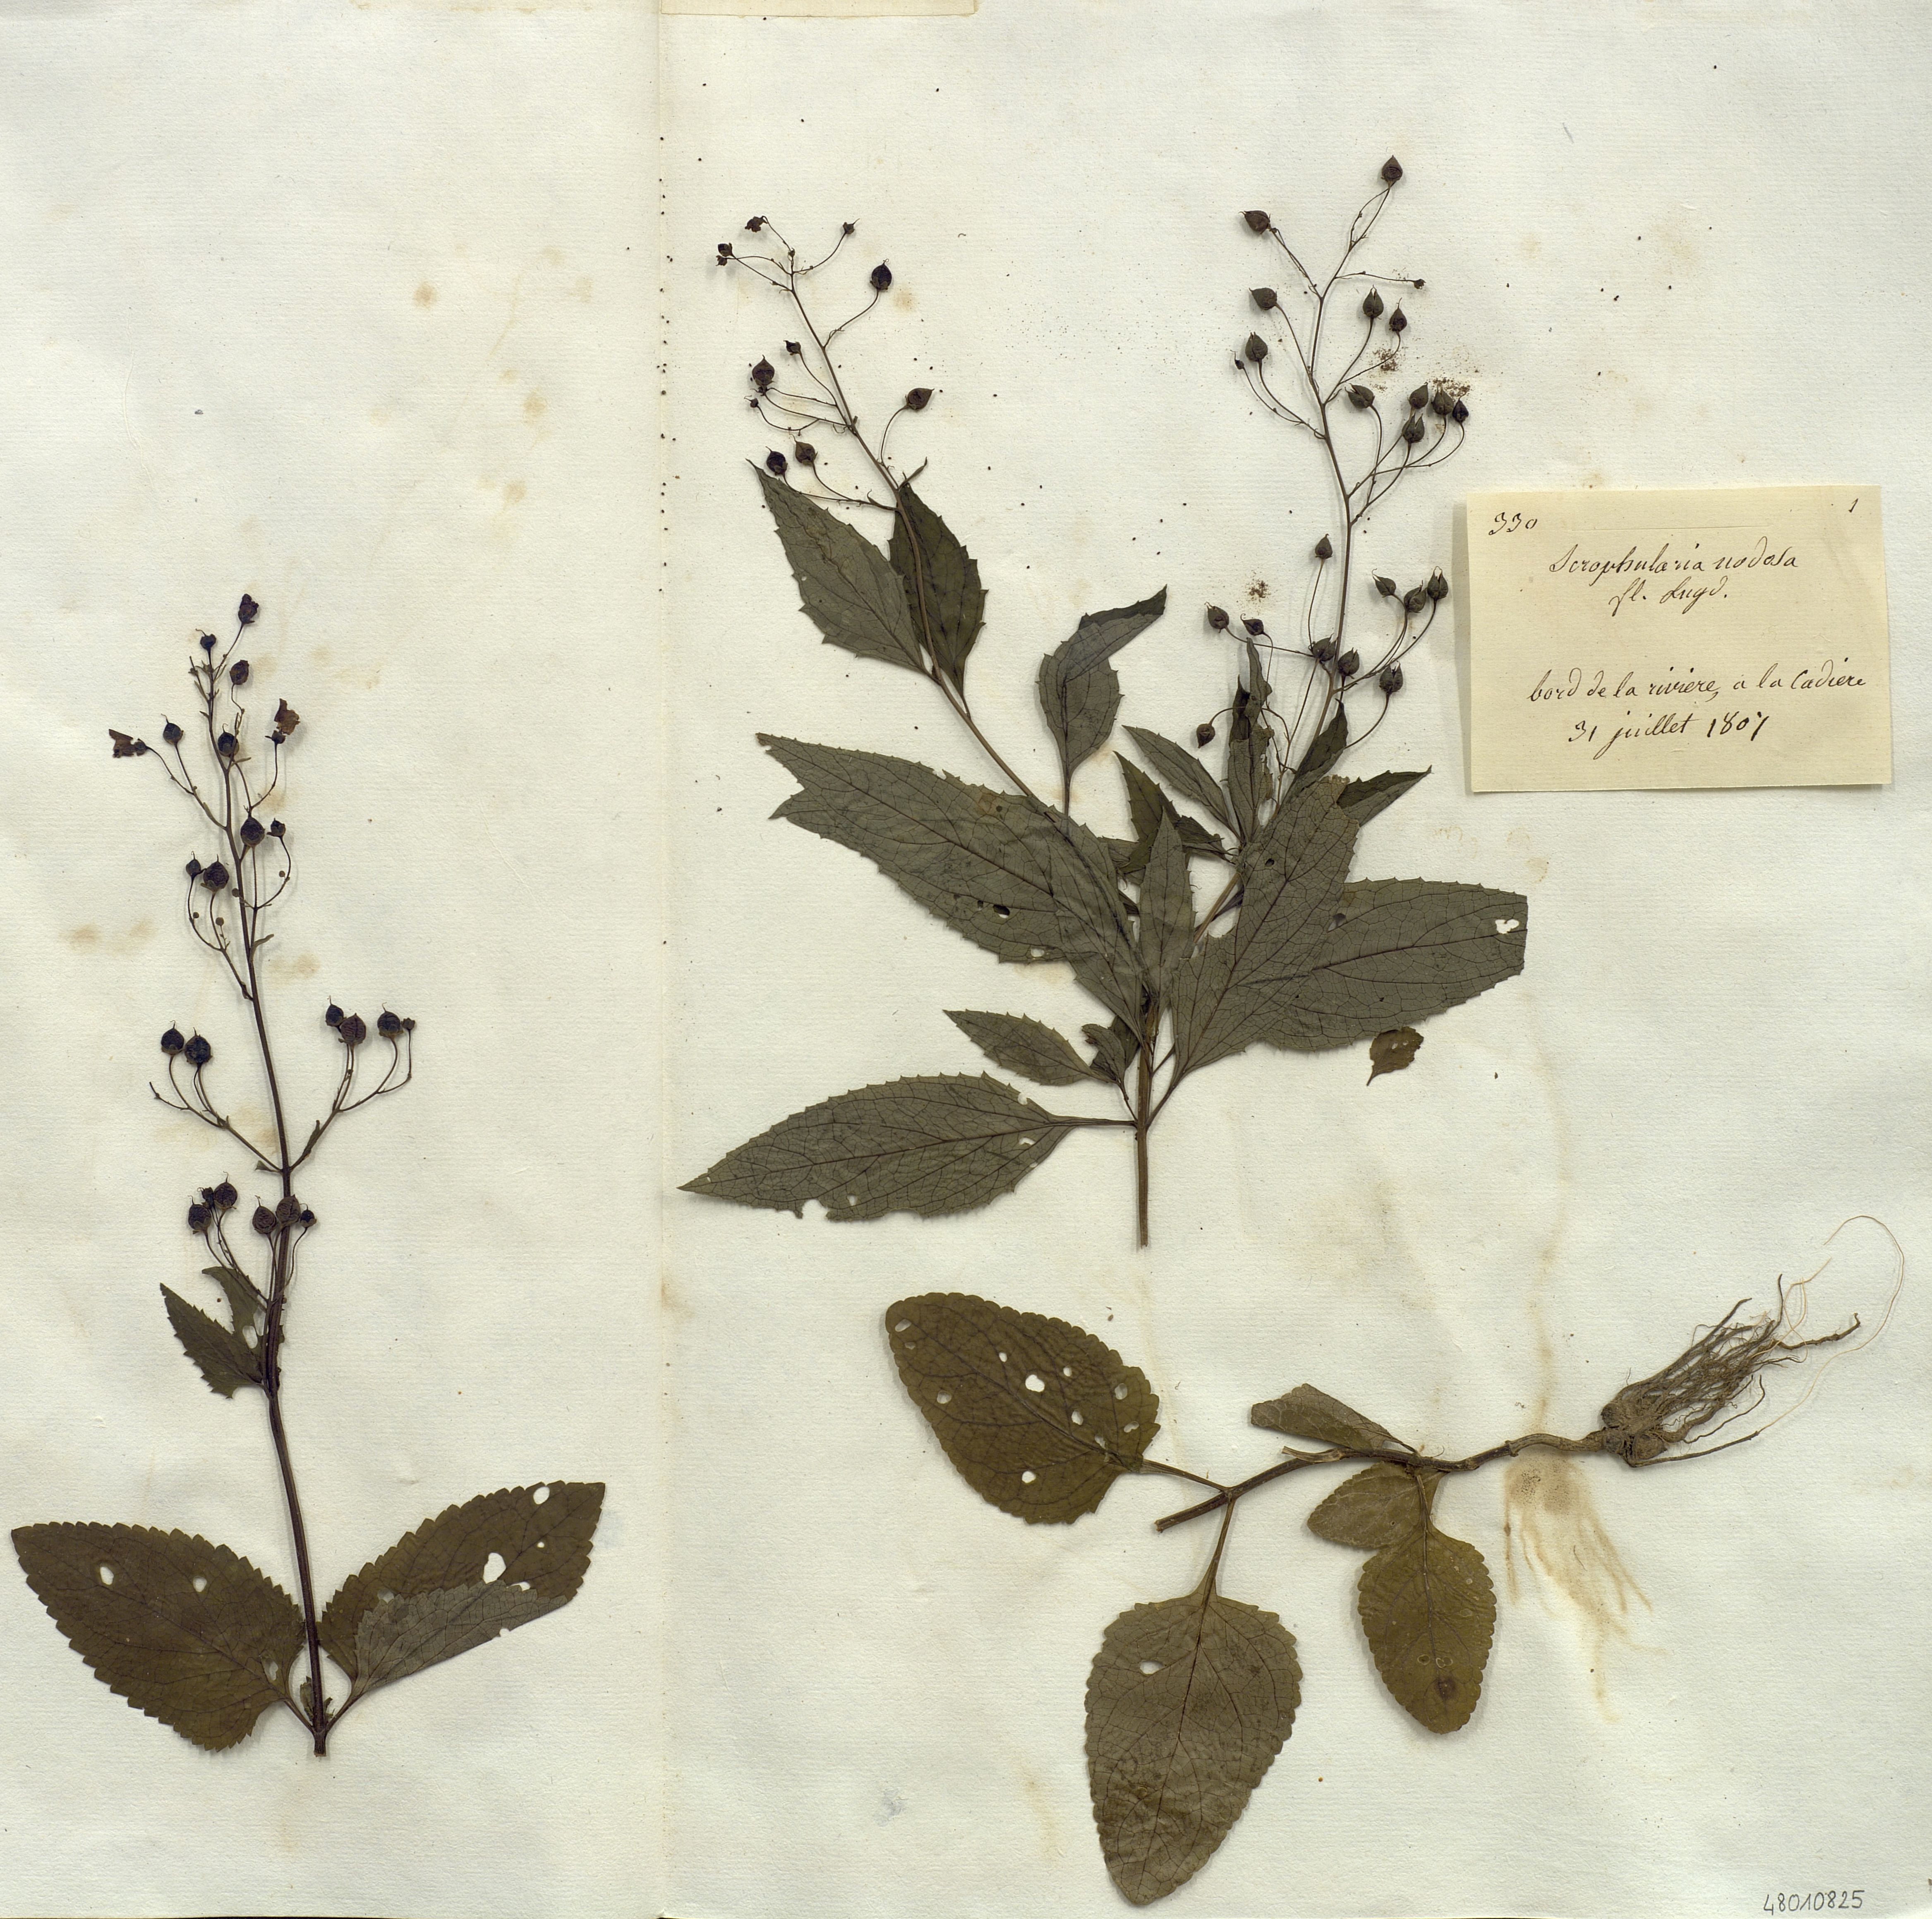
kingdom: Plantae
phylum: Tracheophyta
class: Magnoliopsida
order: Lamiales
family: Scrophulariaceae
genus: Scrophularia
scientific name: Scrophularia nodosa
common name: Common figwort
